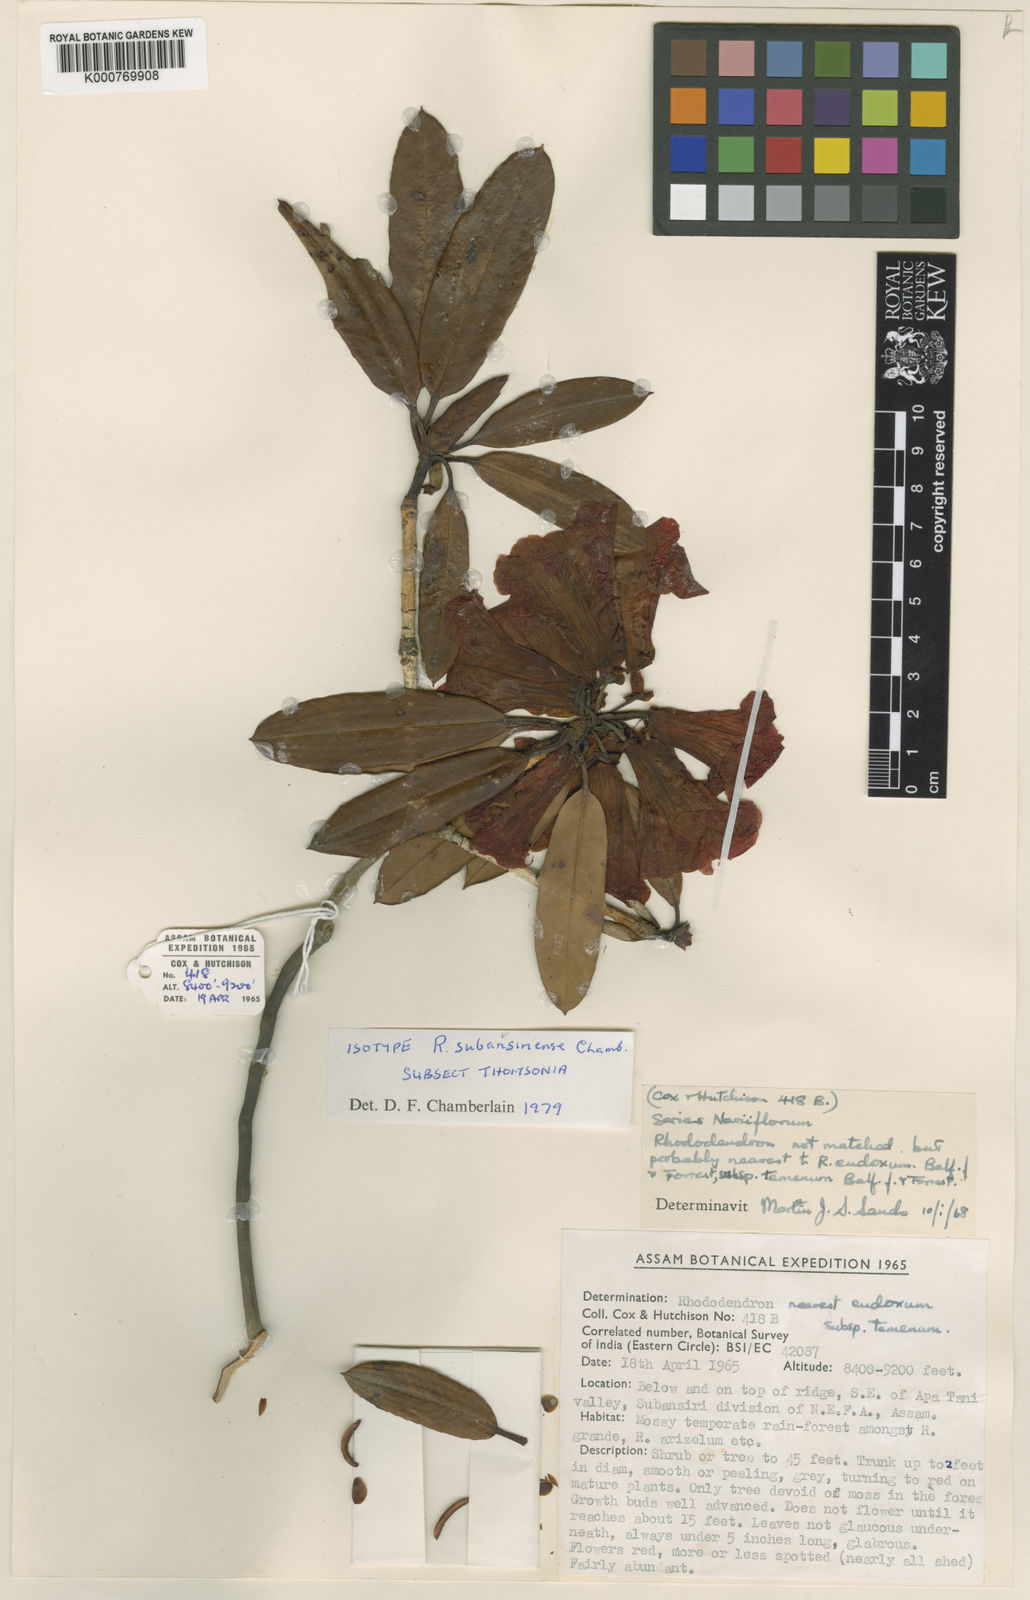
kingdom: Plantae
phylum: Tracheophyta
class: Magnoliopsida
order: Ericales
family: Ericaceae
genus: Rhododendron
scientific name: Rhododendron
